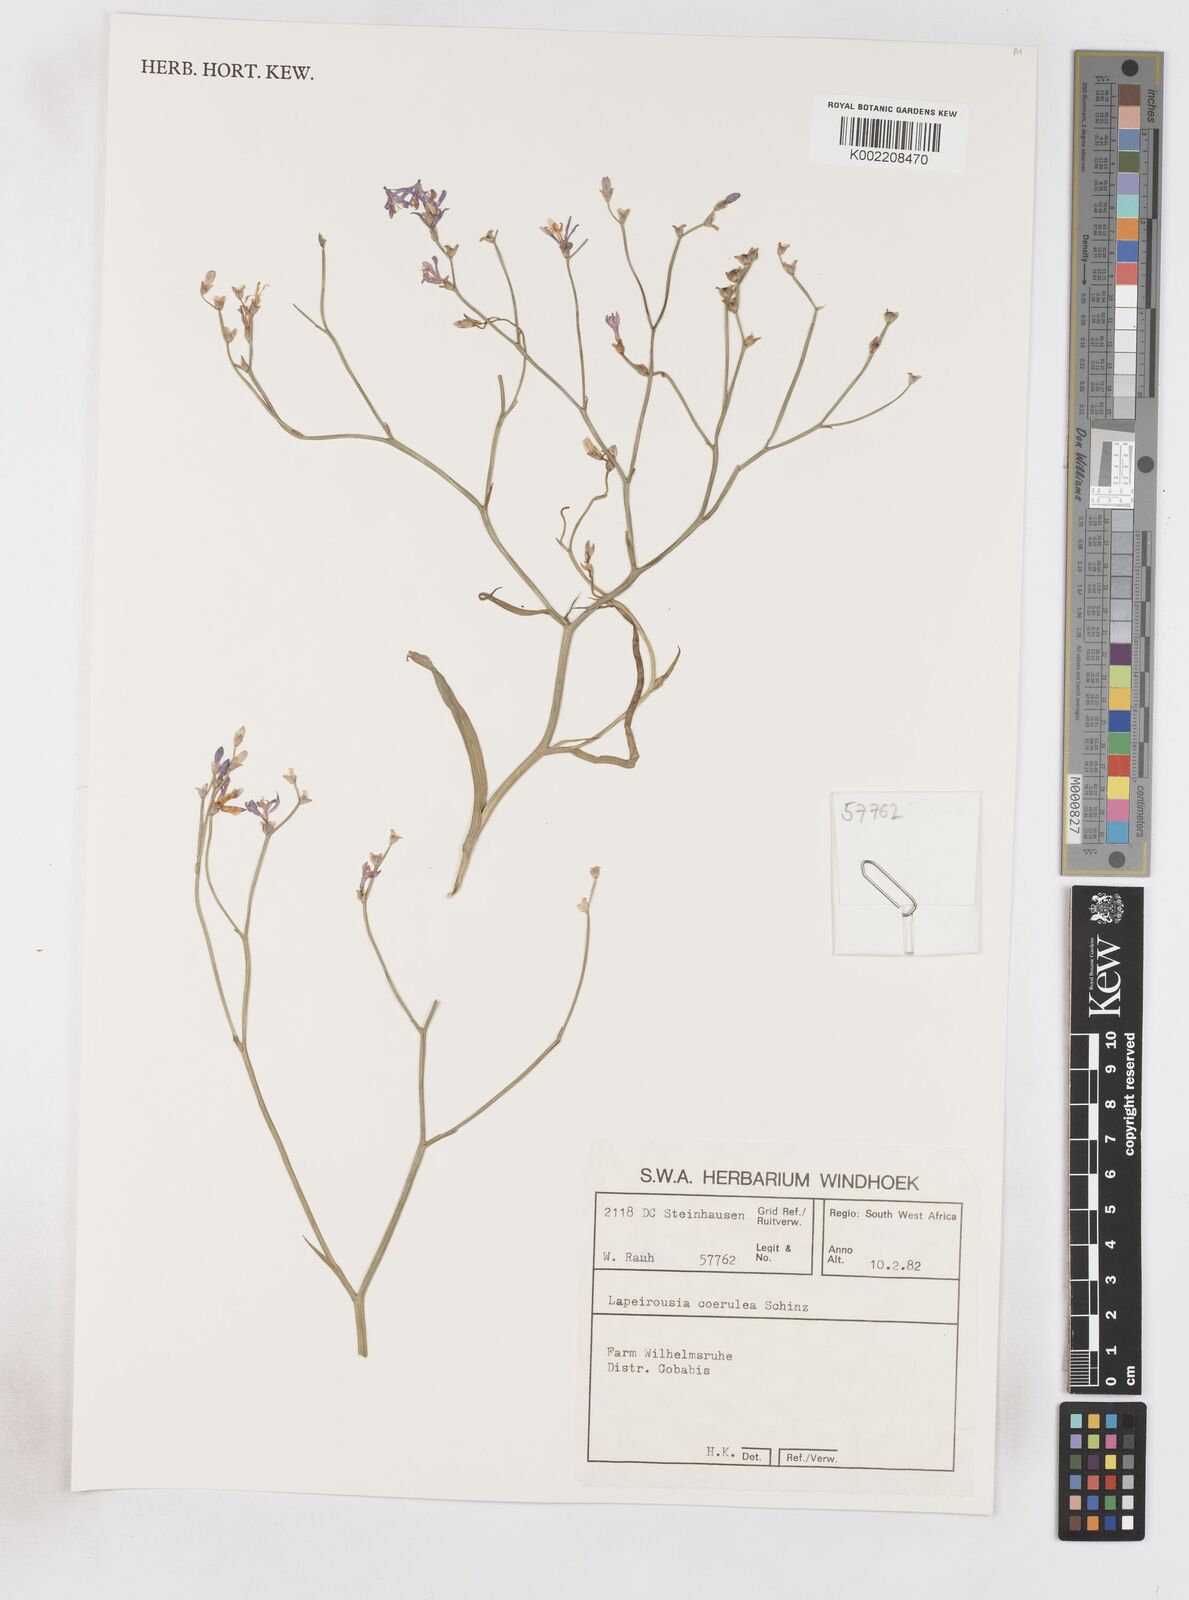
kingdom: Plantae
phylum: Tracheophyta
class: Liliopsida
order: Asparagales
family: Iridaceae
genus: Afrosolen
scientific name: Afrosolen coeruleus
